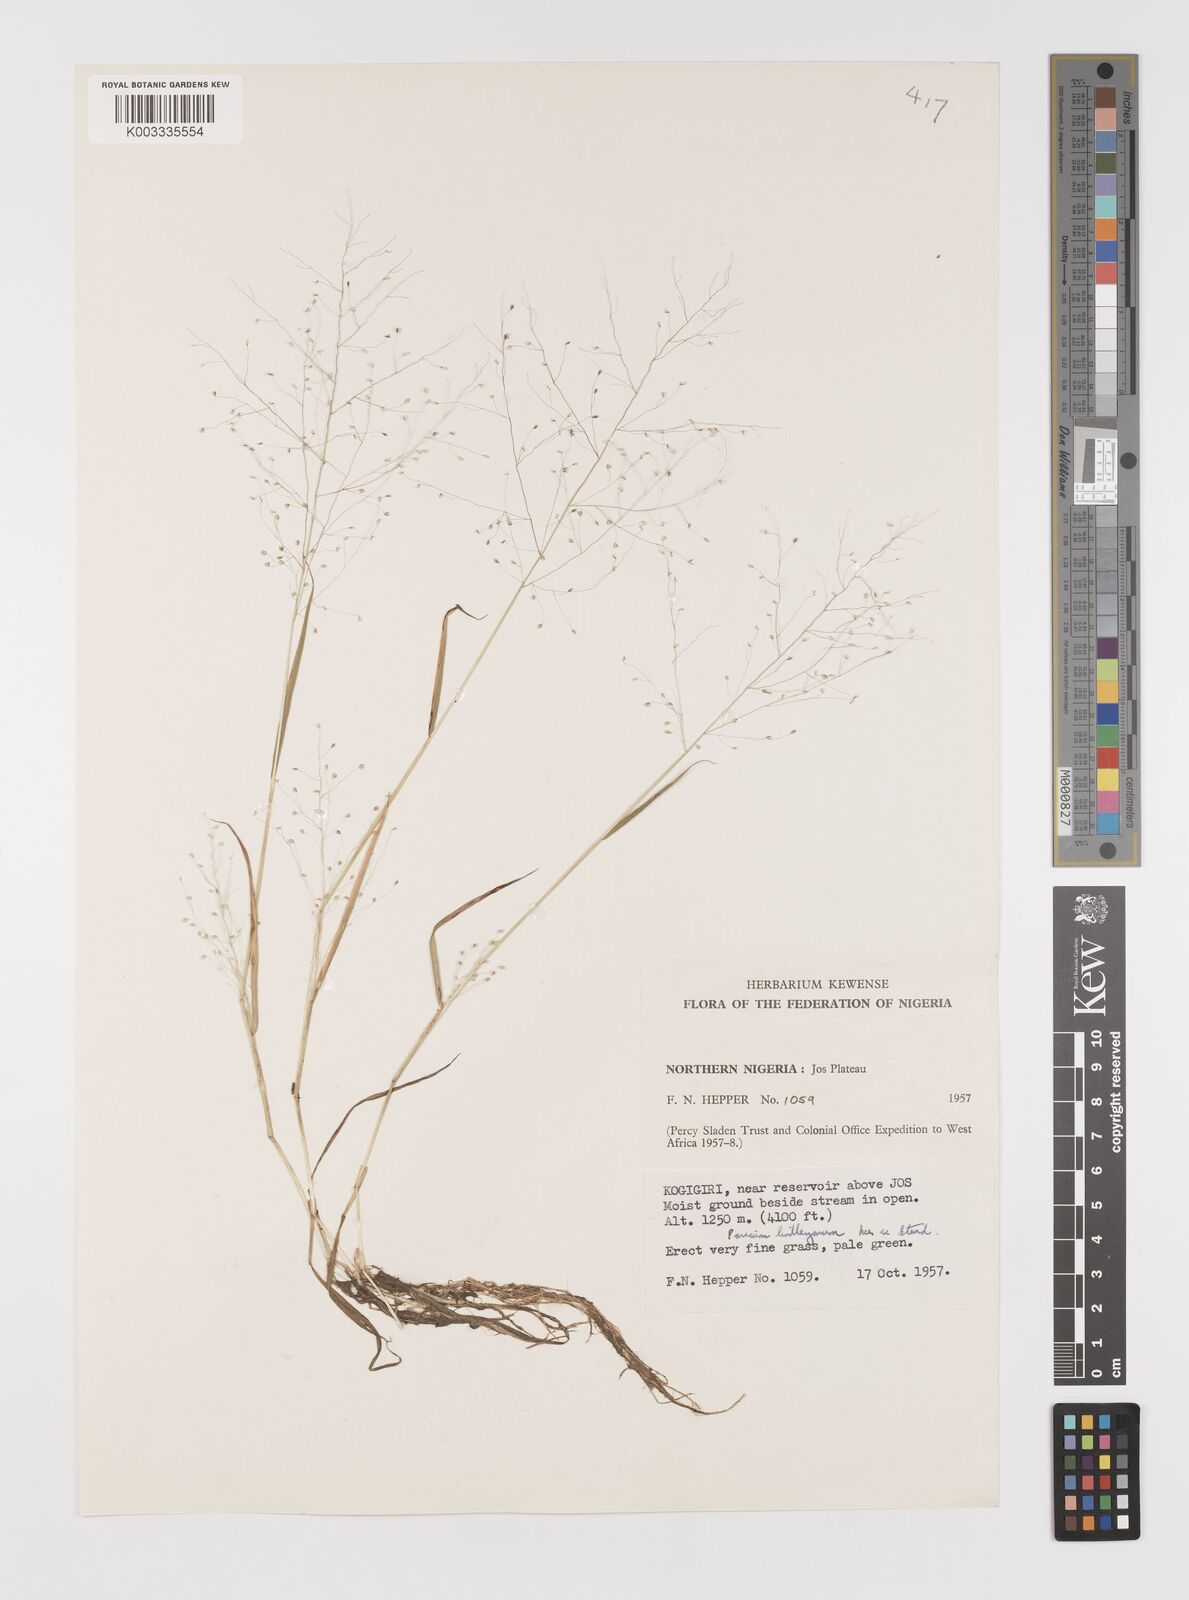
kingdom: Plantae
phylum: Tracheophyta
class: Liliopsida
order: Poales
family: Poaceae
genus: Trichanthecium
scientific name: Trichanthecium tenellum
